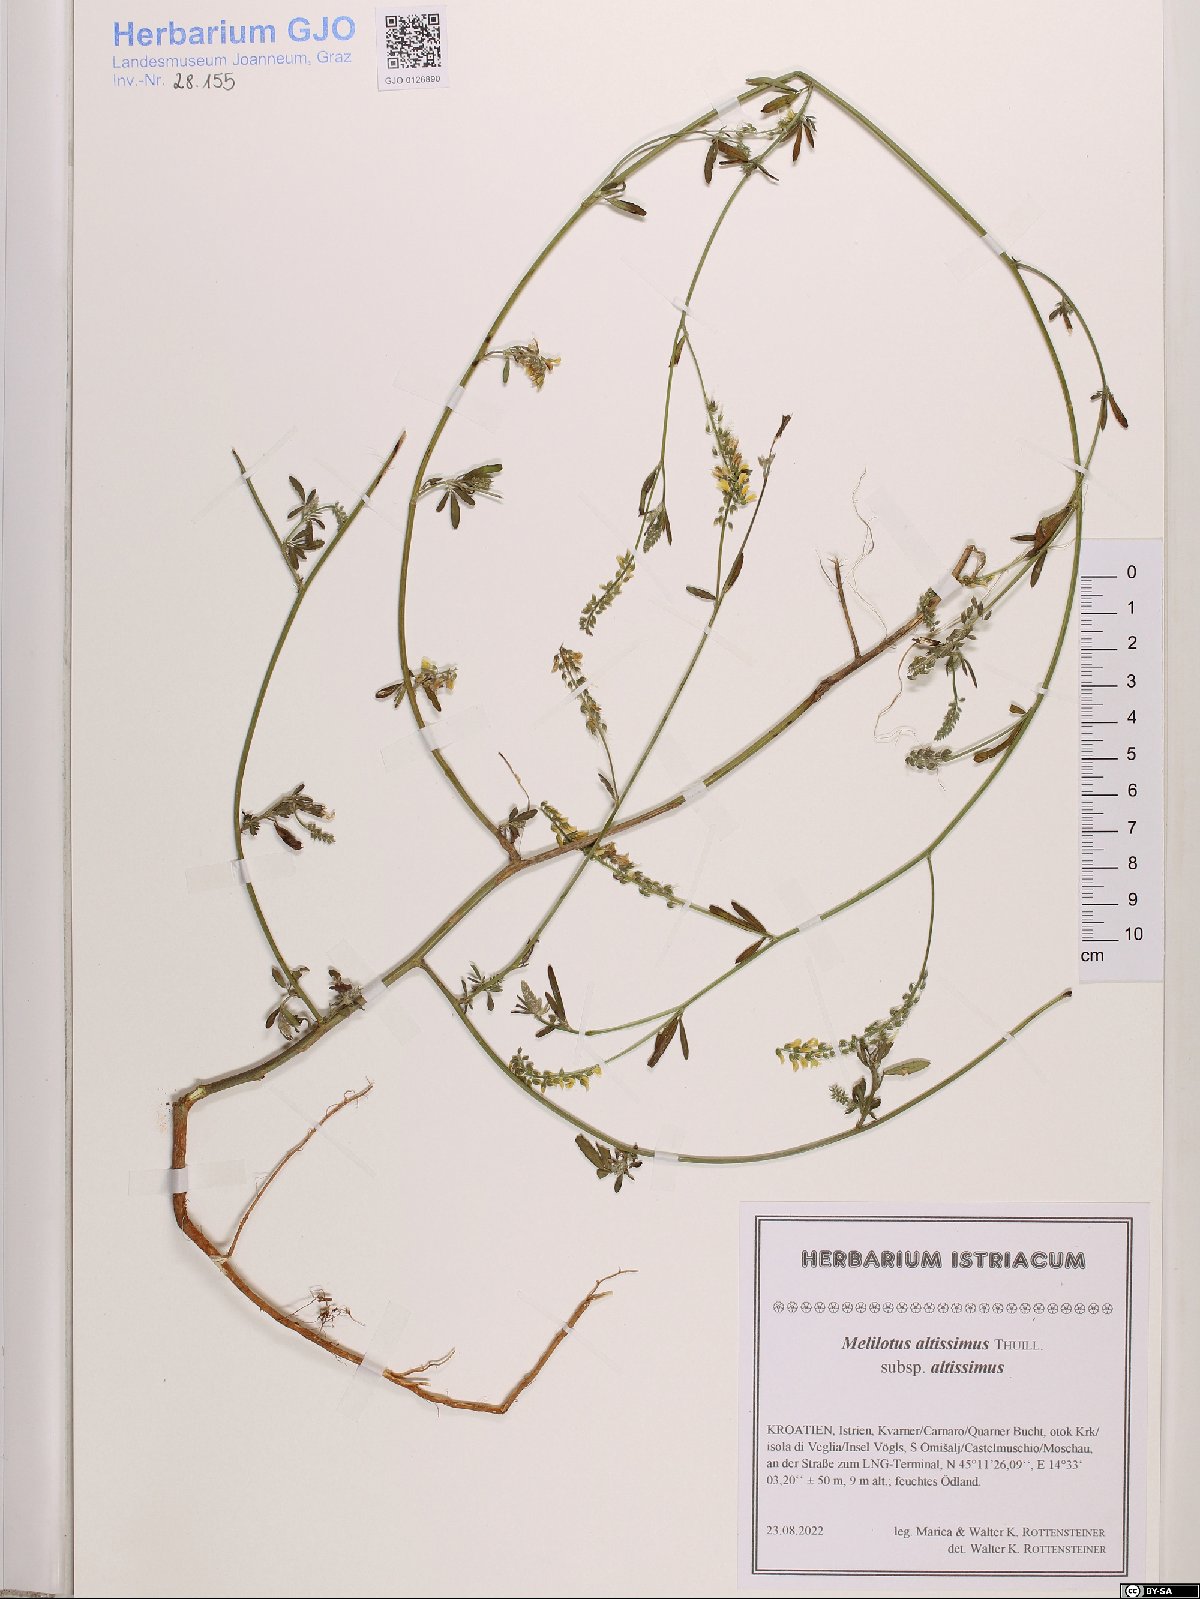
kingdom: Plantae
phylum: Tracheophyta
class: Magnoliopsida
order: Fabales
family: Fabaceae
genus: Melilotus
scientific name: Melilotus altissimus
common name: Tall melilot
